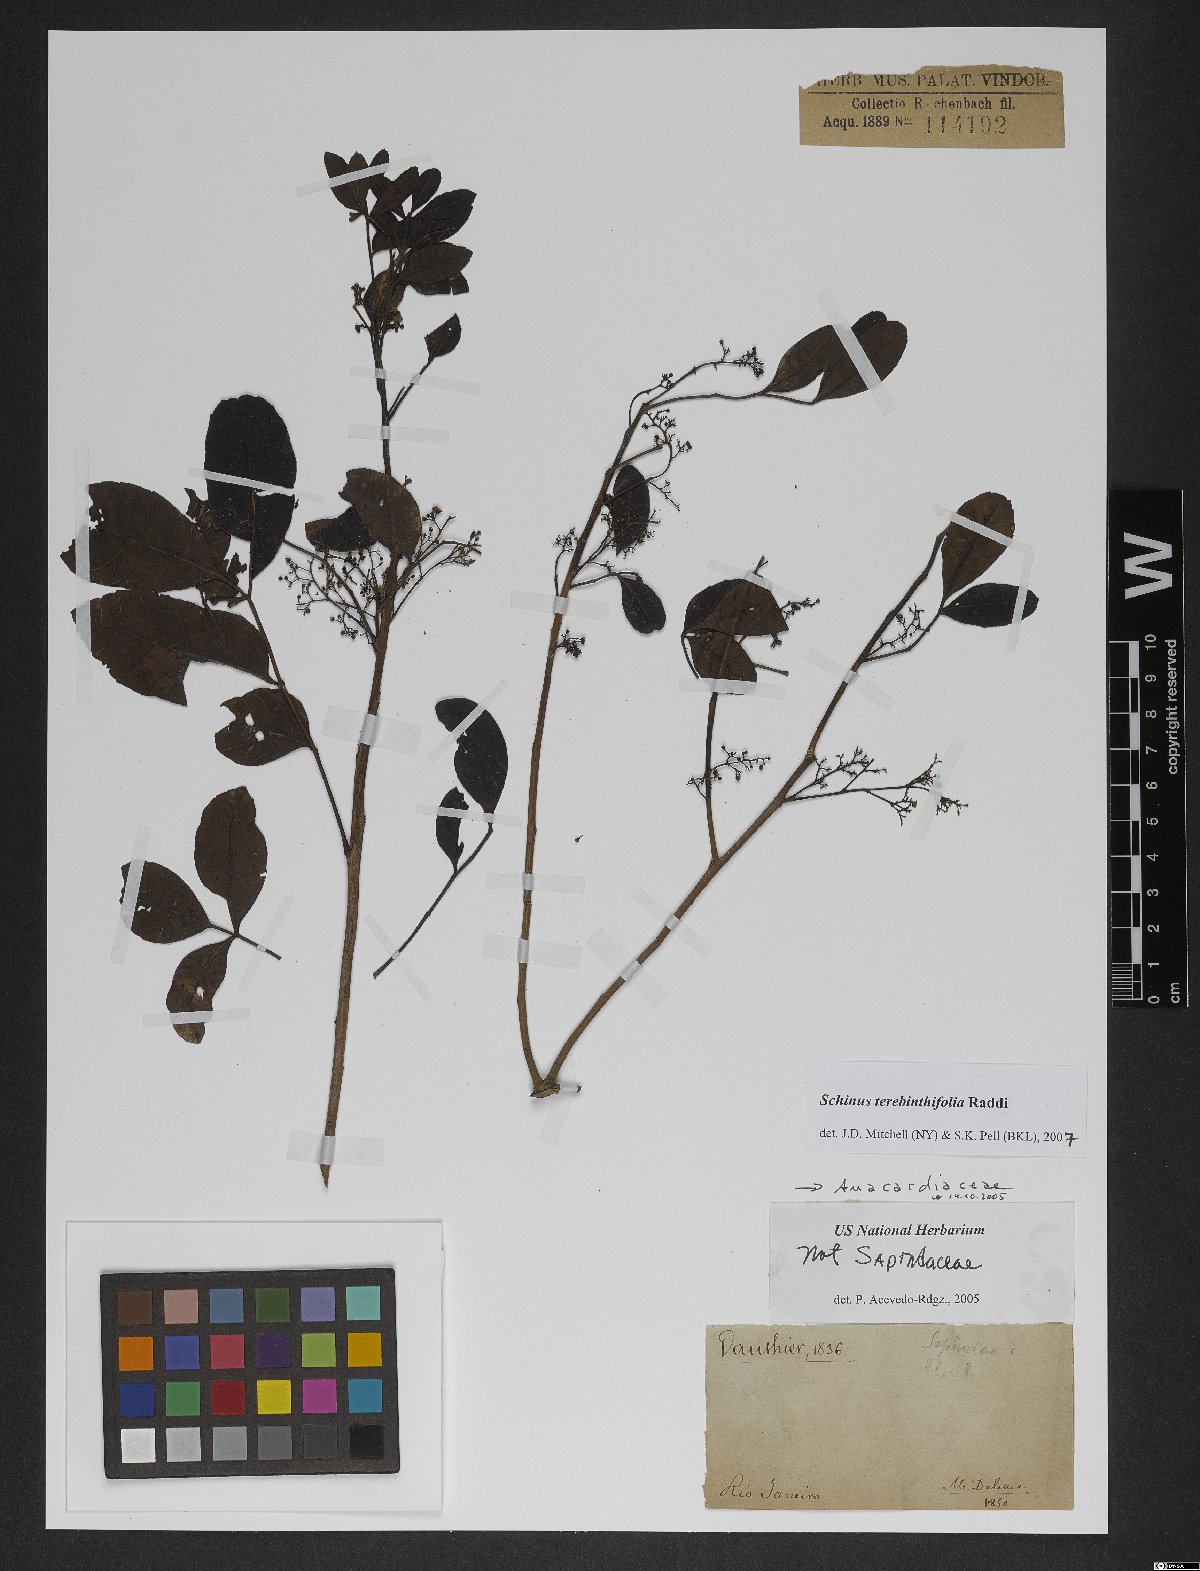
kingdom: Plantae
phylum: Tracheophyta
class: Magnoliopsida
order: Sapindales
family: Anacardiaceae
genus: Schinus
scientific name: Schinus terebinthifolia
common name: Brazilian peppertree
